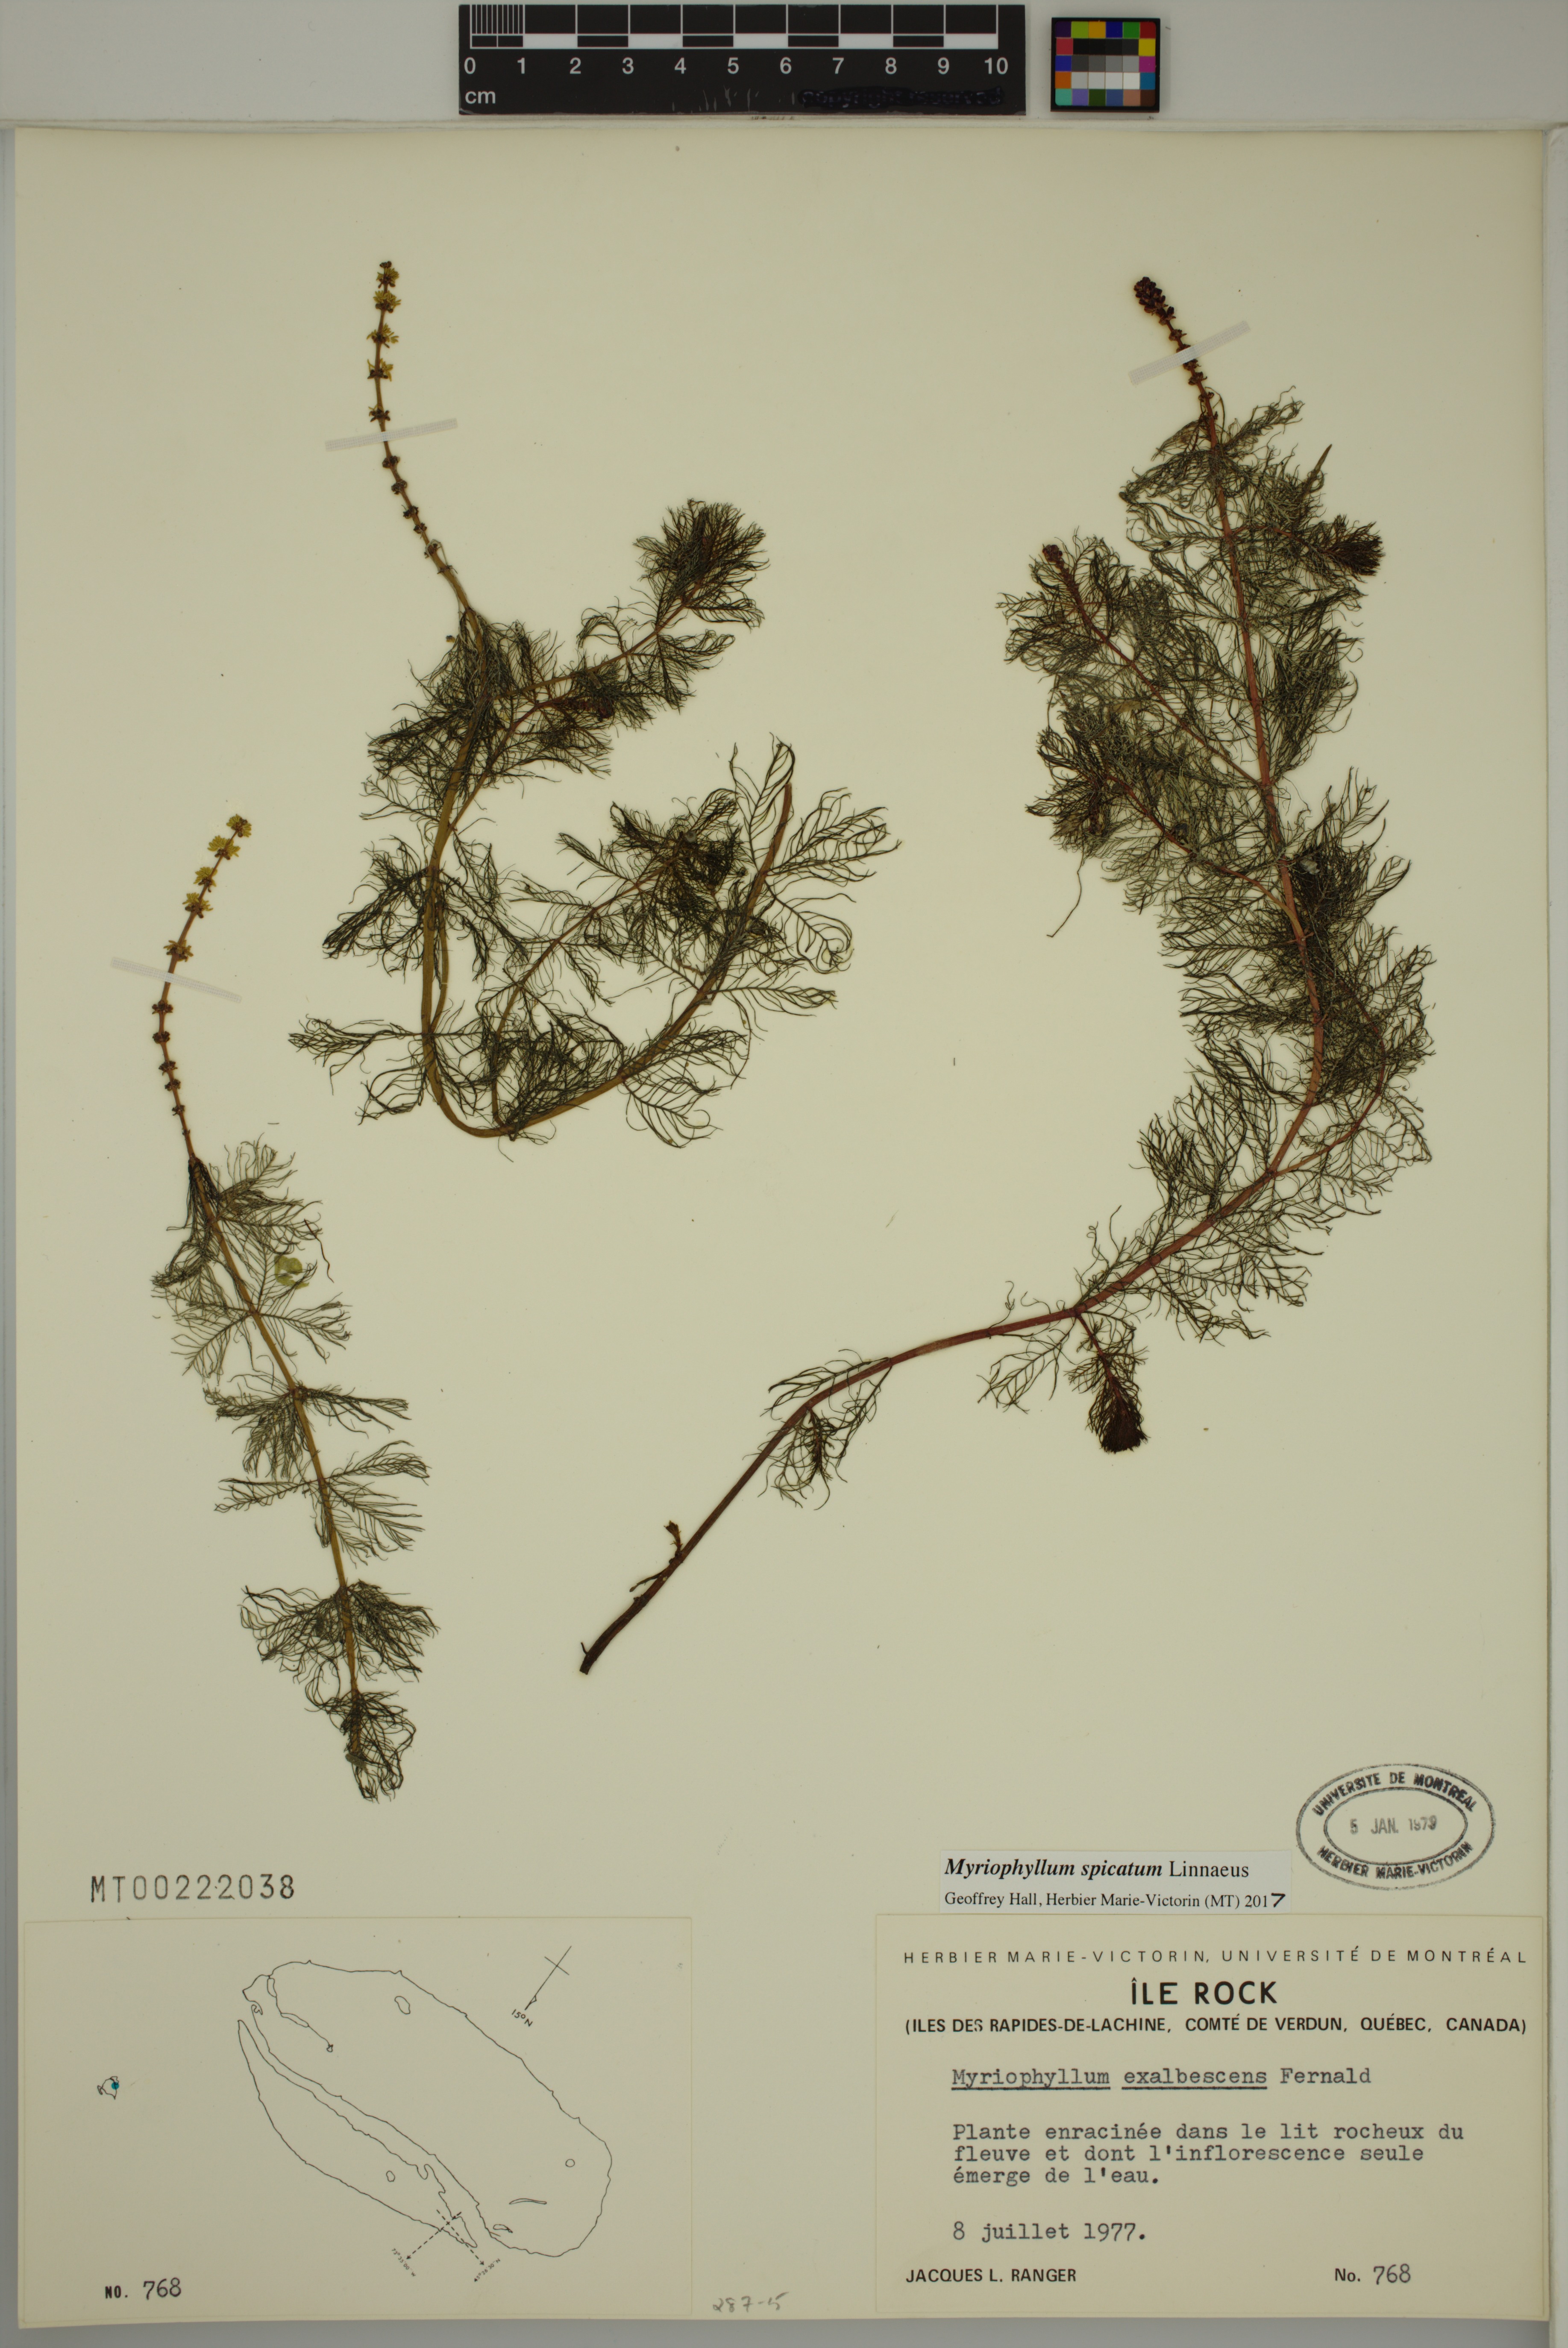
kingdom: Plantae
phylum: Tracheophyta
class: Magnoliopsida
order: Saxifragales
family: Haloragaceae
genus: Myriophyllum
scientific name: Myriophyllum spicatum
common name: Spiked water-milfoil
